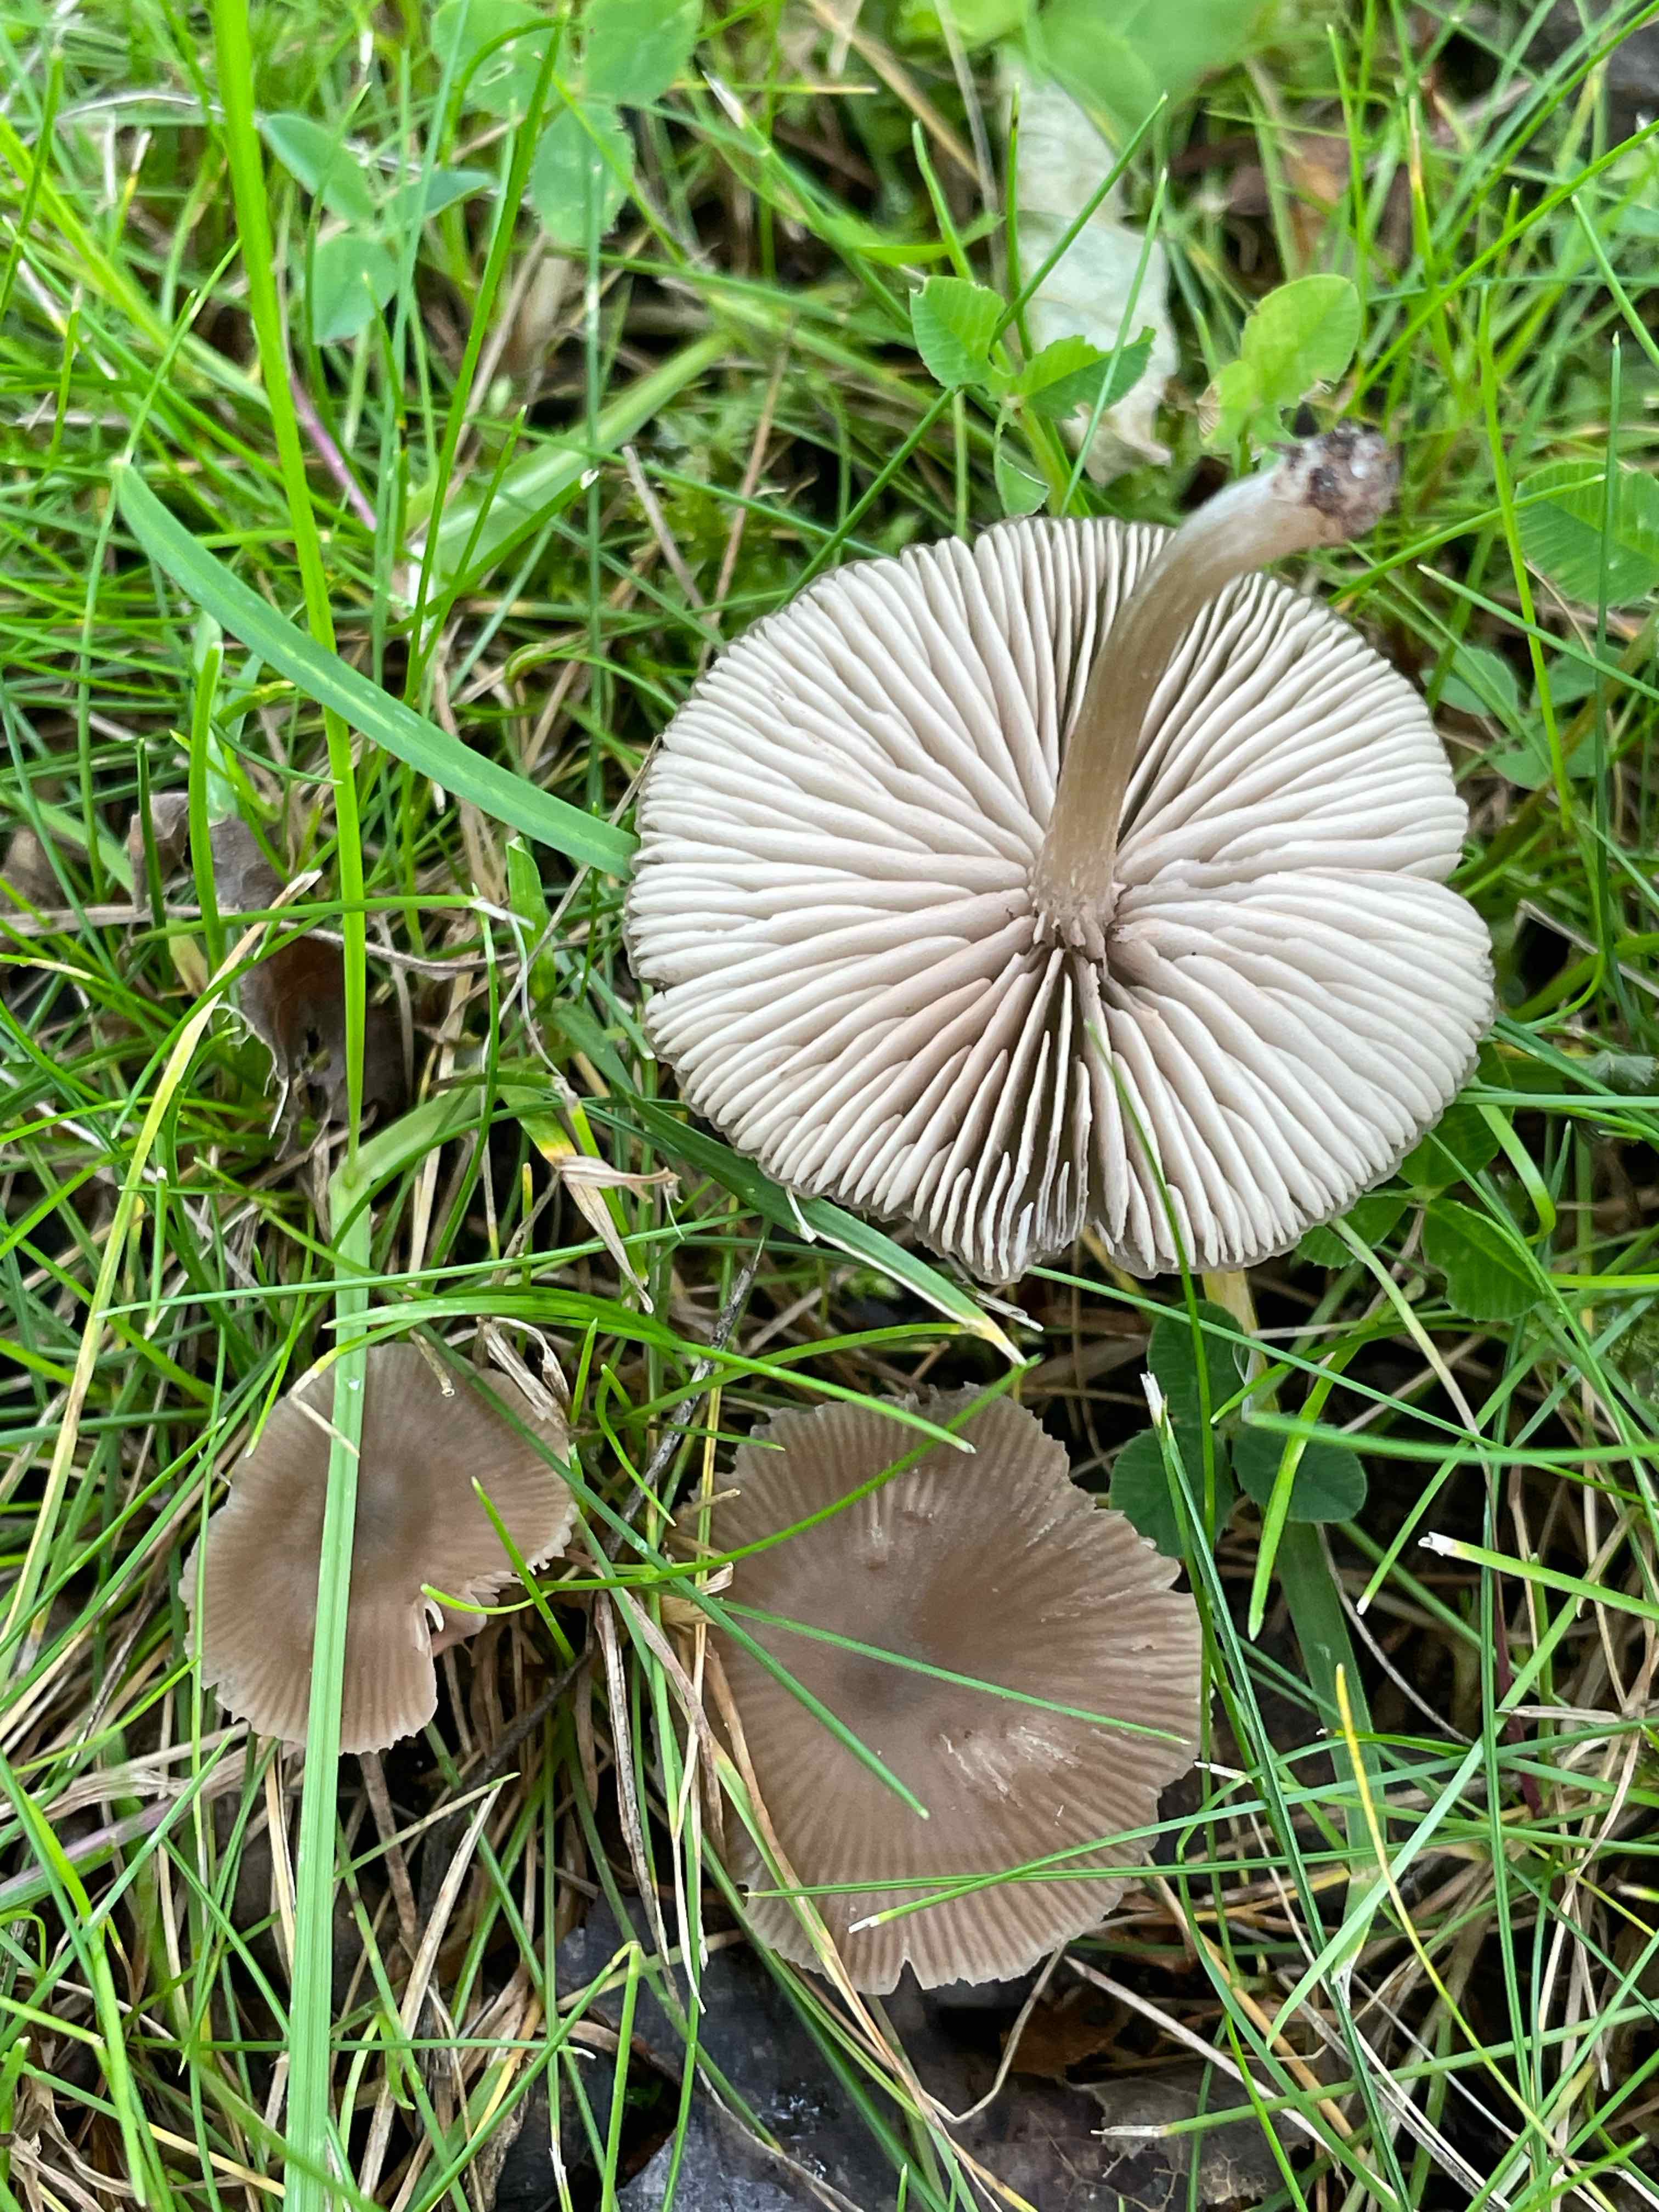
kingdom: Fungi
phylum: Basidiomycota
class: Agaricomycetes
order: Agaricales
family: Entolomataceae
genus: Entoloma
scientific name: Entoloma
